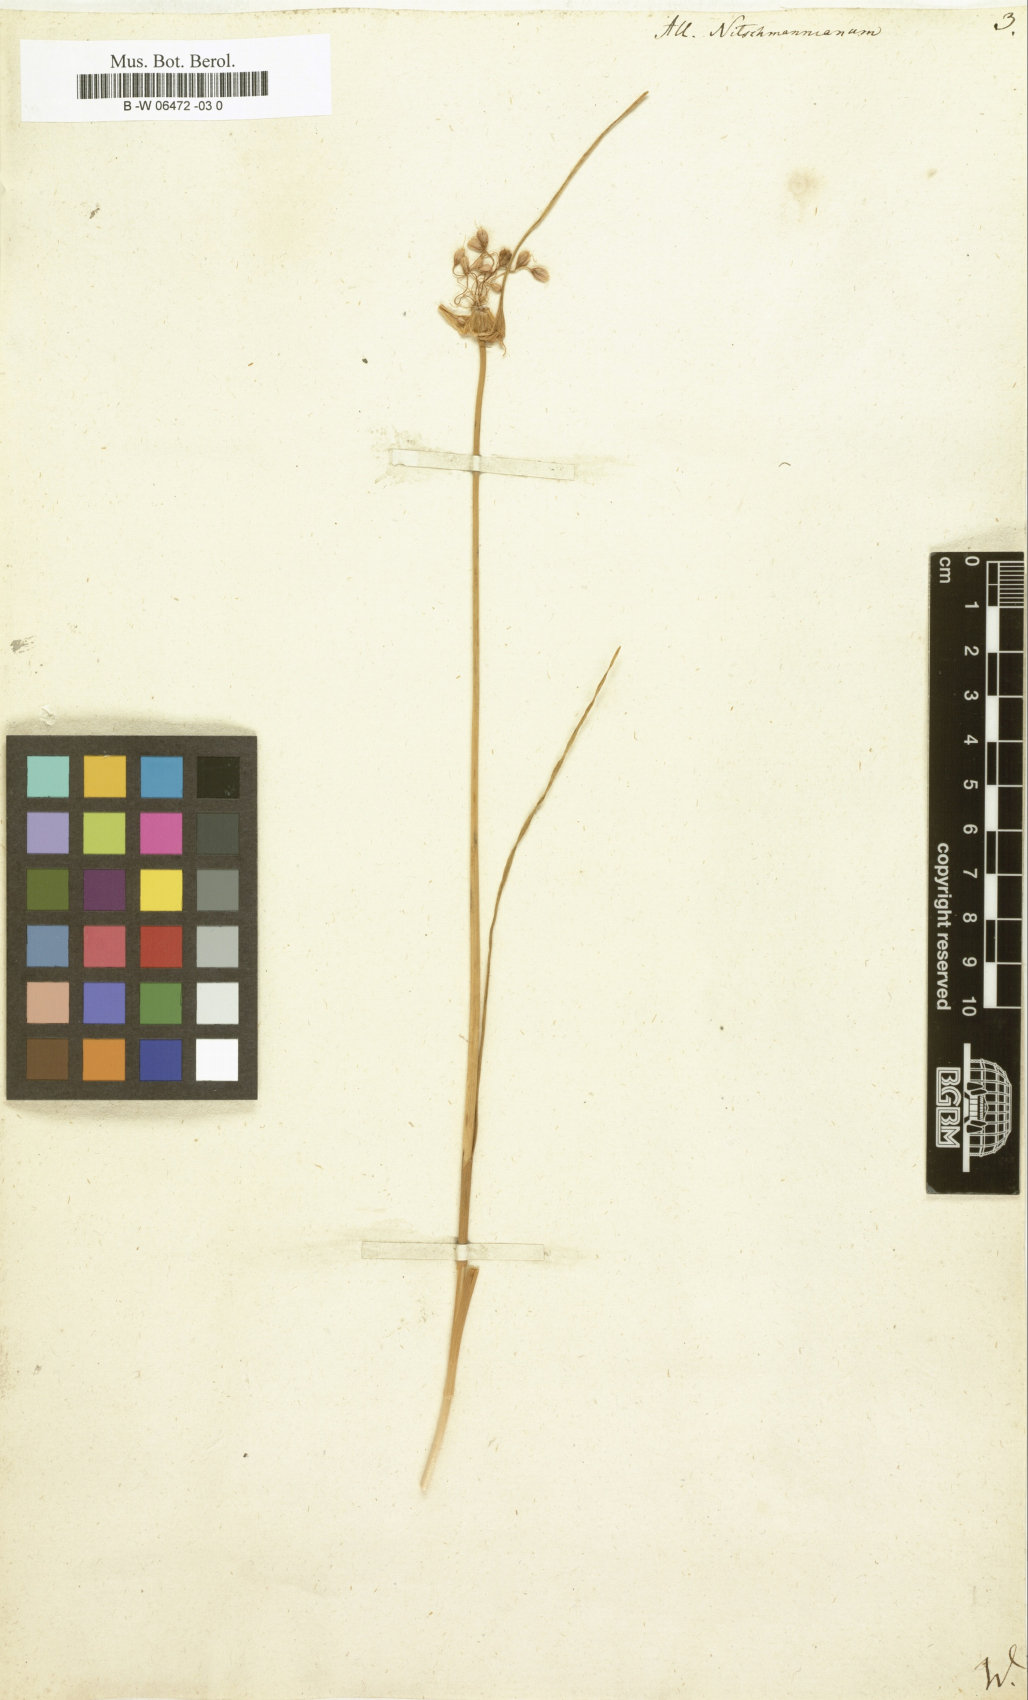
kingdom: Plantae
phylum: Tracheophyta
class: Liliopsida
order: Asparagales
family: Amaryllidaceae
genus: Allium
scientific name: Allium flavum
